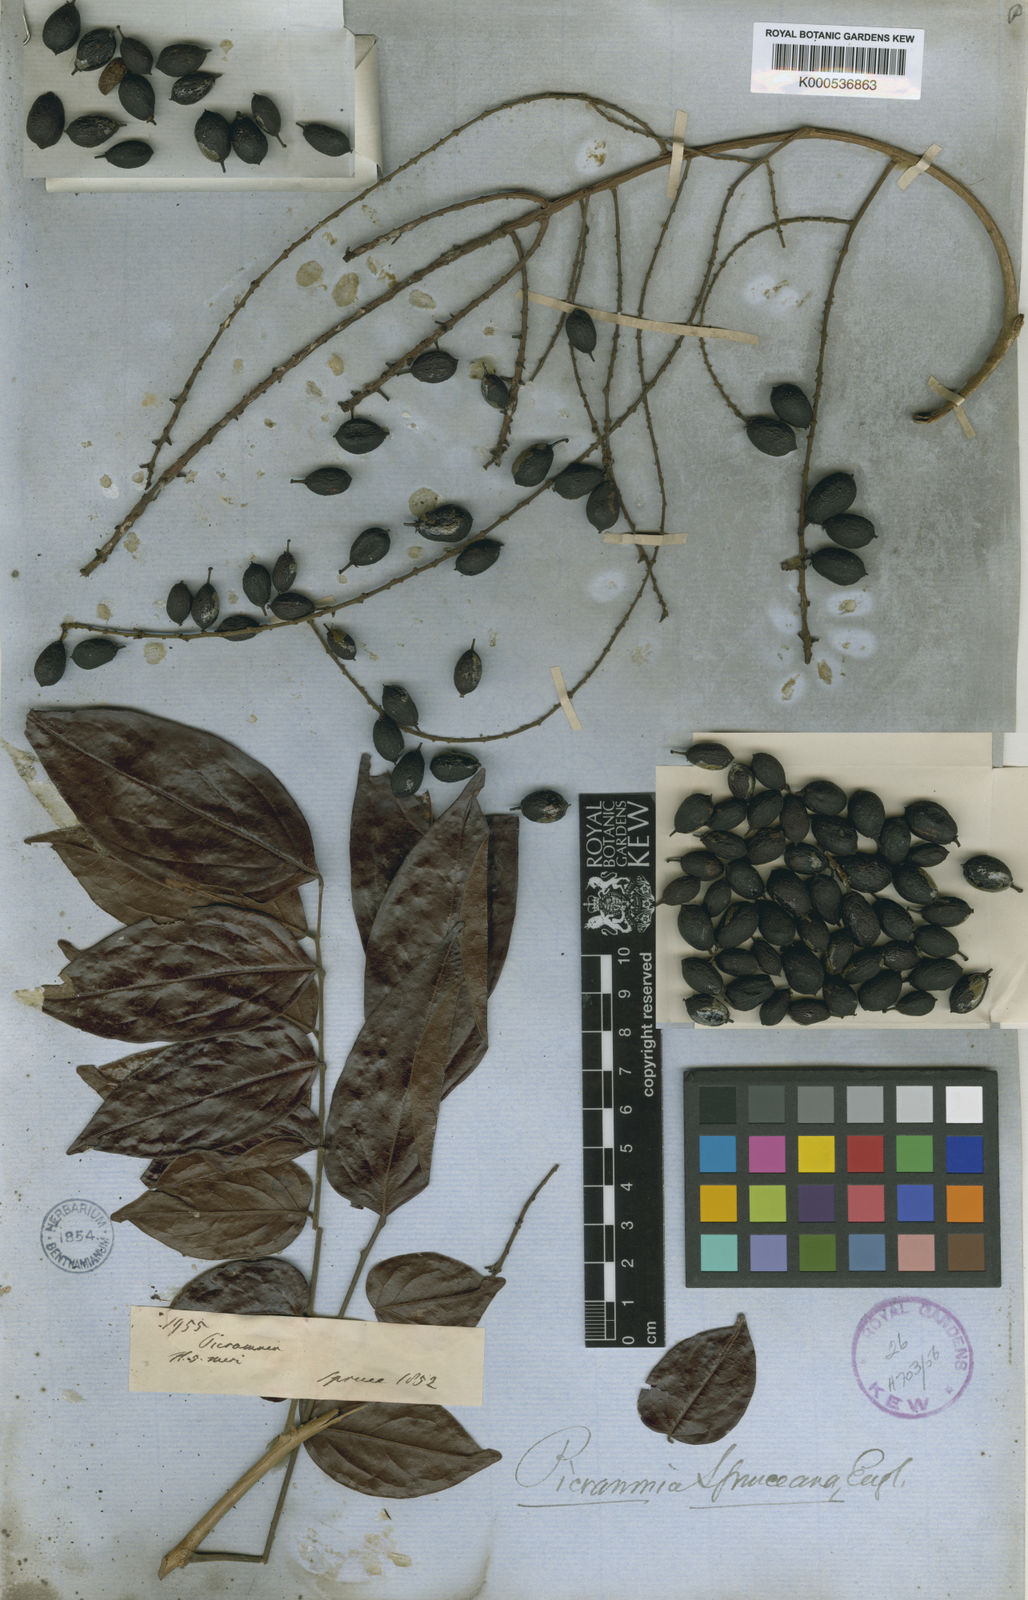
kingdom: Plantae
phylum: Tracheophyta
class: Magnoliopsida
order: Picramniales
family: Picramniaceae
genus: Picramnia
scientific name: Picramnia spruceana
